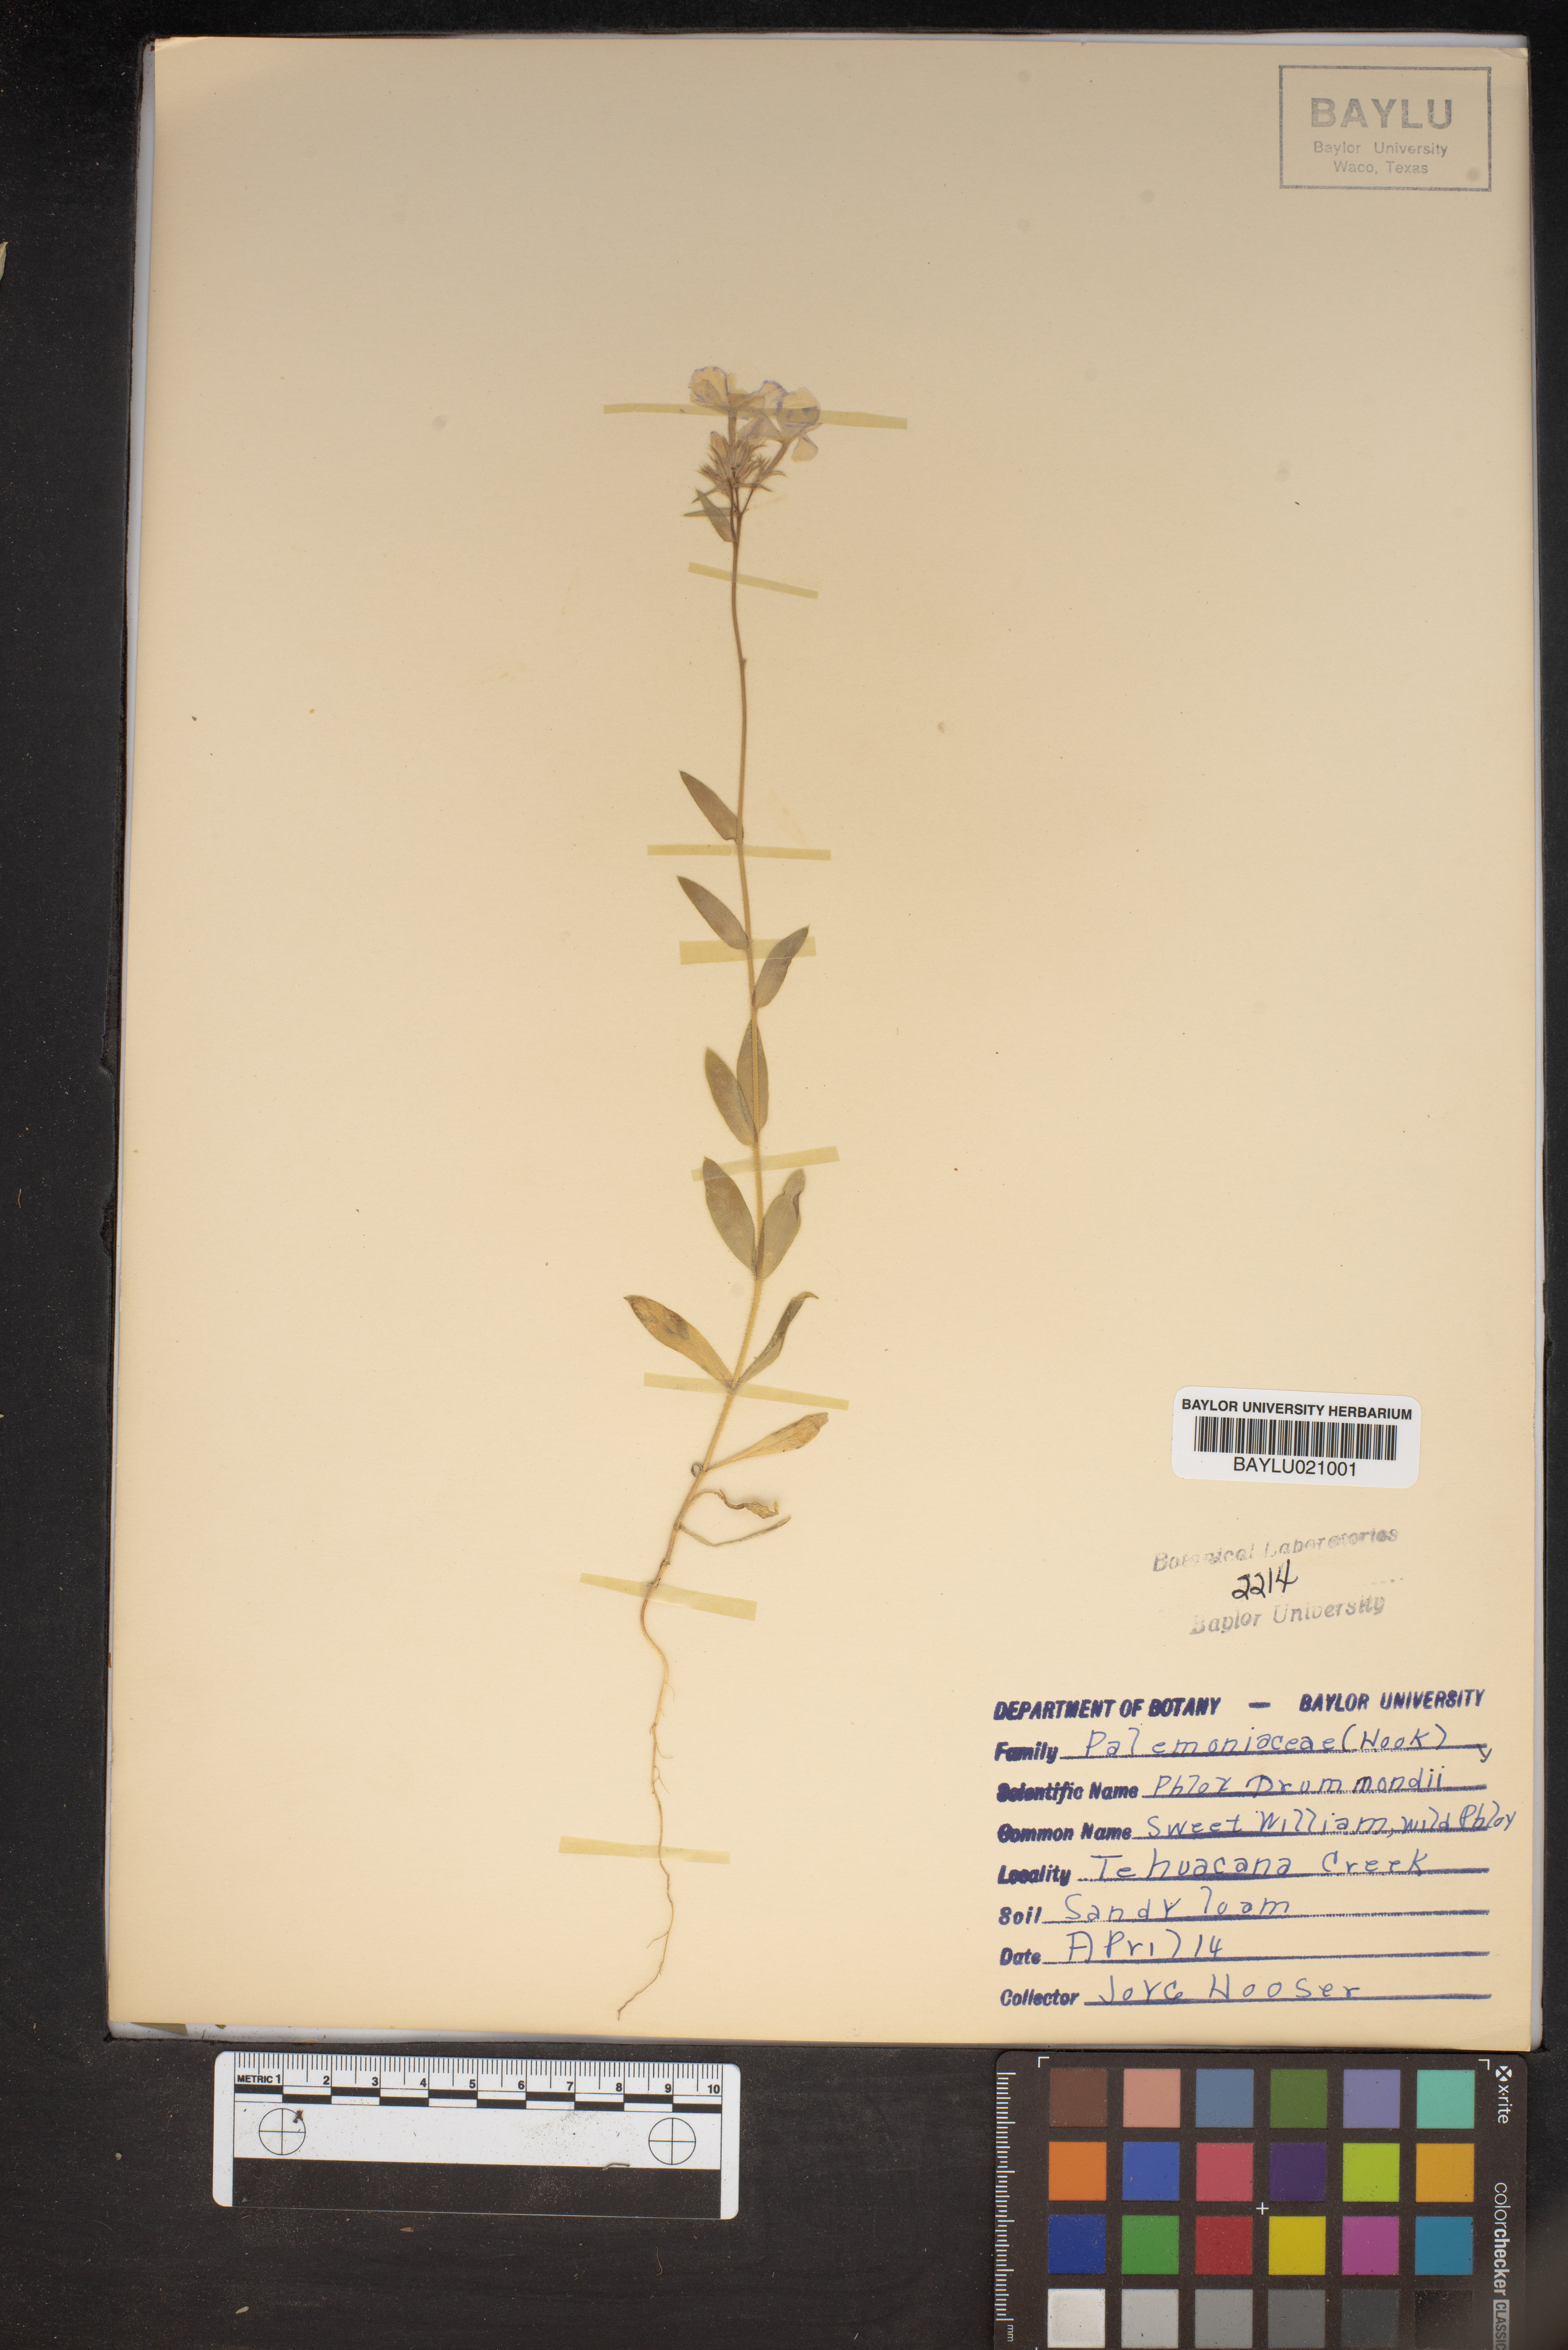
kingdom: Plantae
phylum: Tracheophyta
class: Magnoliopsida
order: Ericales
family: Polemoniaceae
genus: Phlox
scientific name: Phlox drummondii
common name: Drummond's phlox
